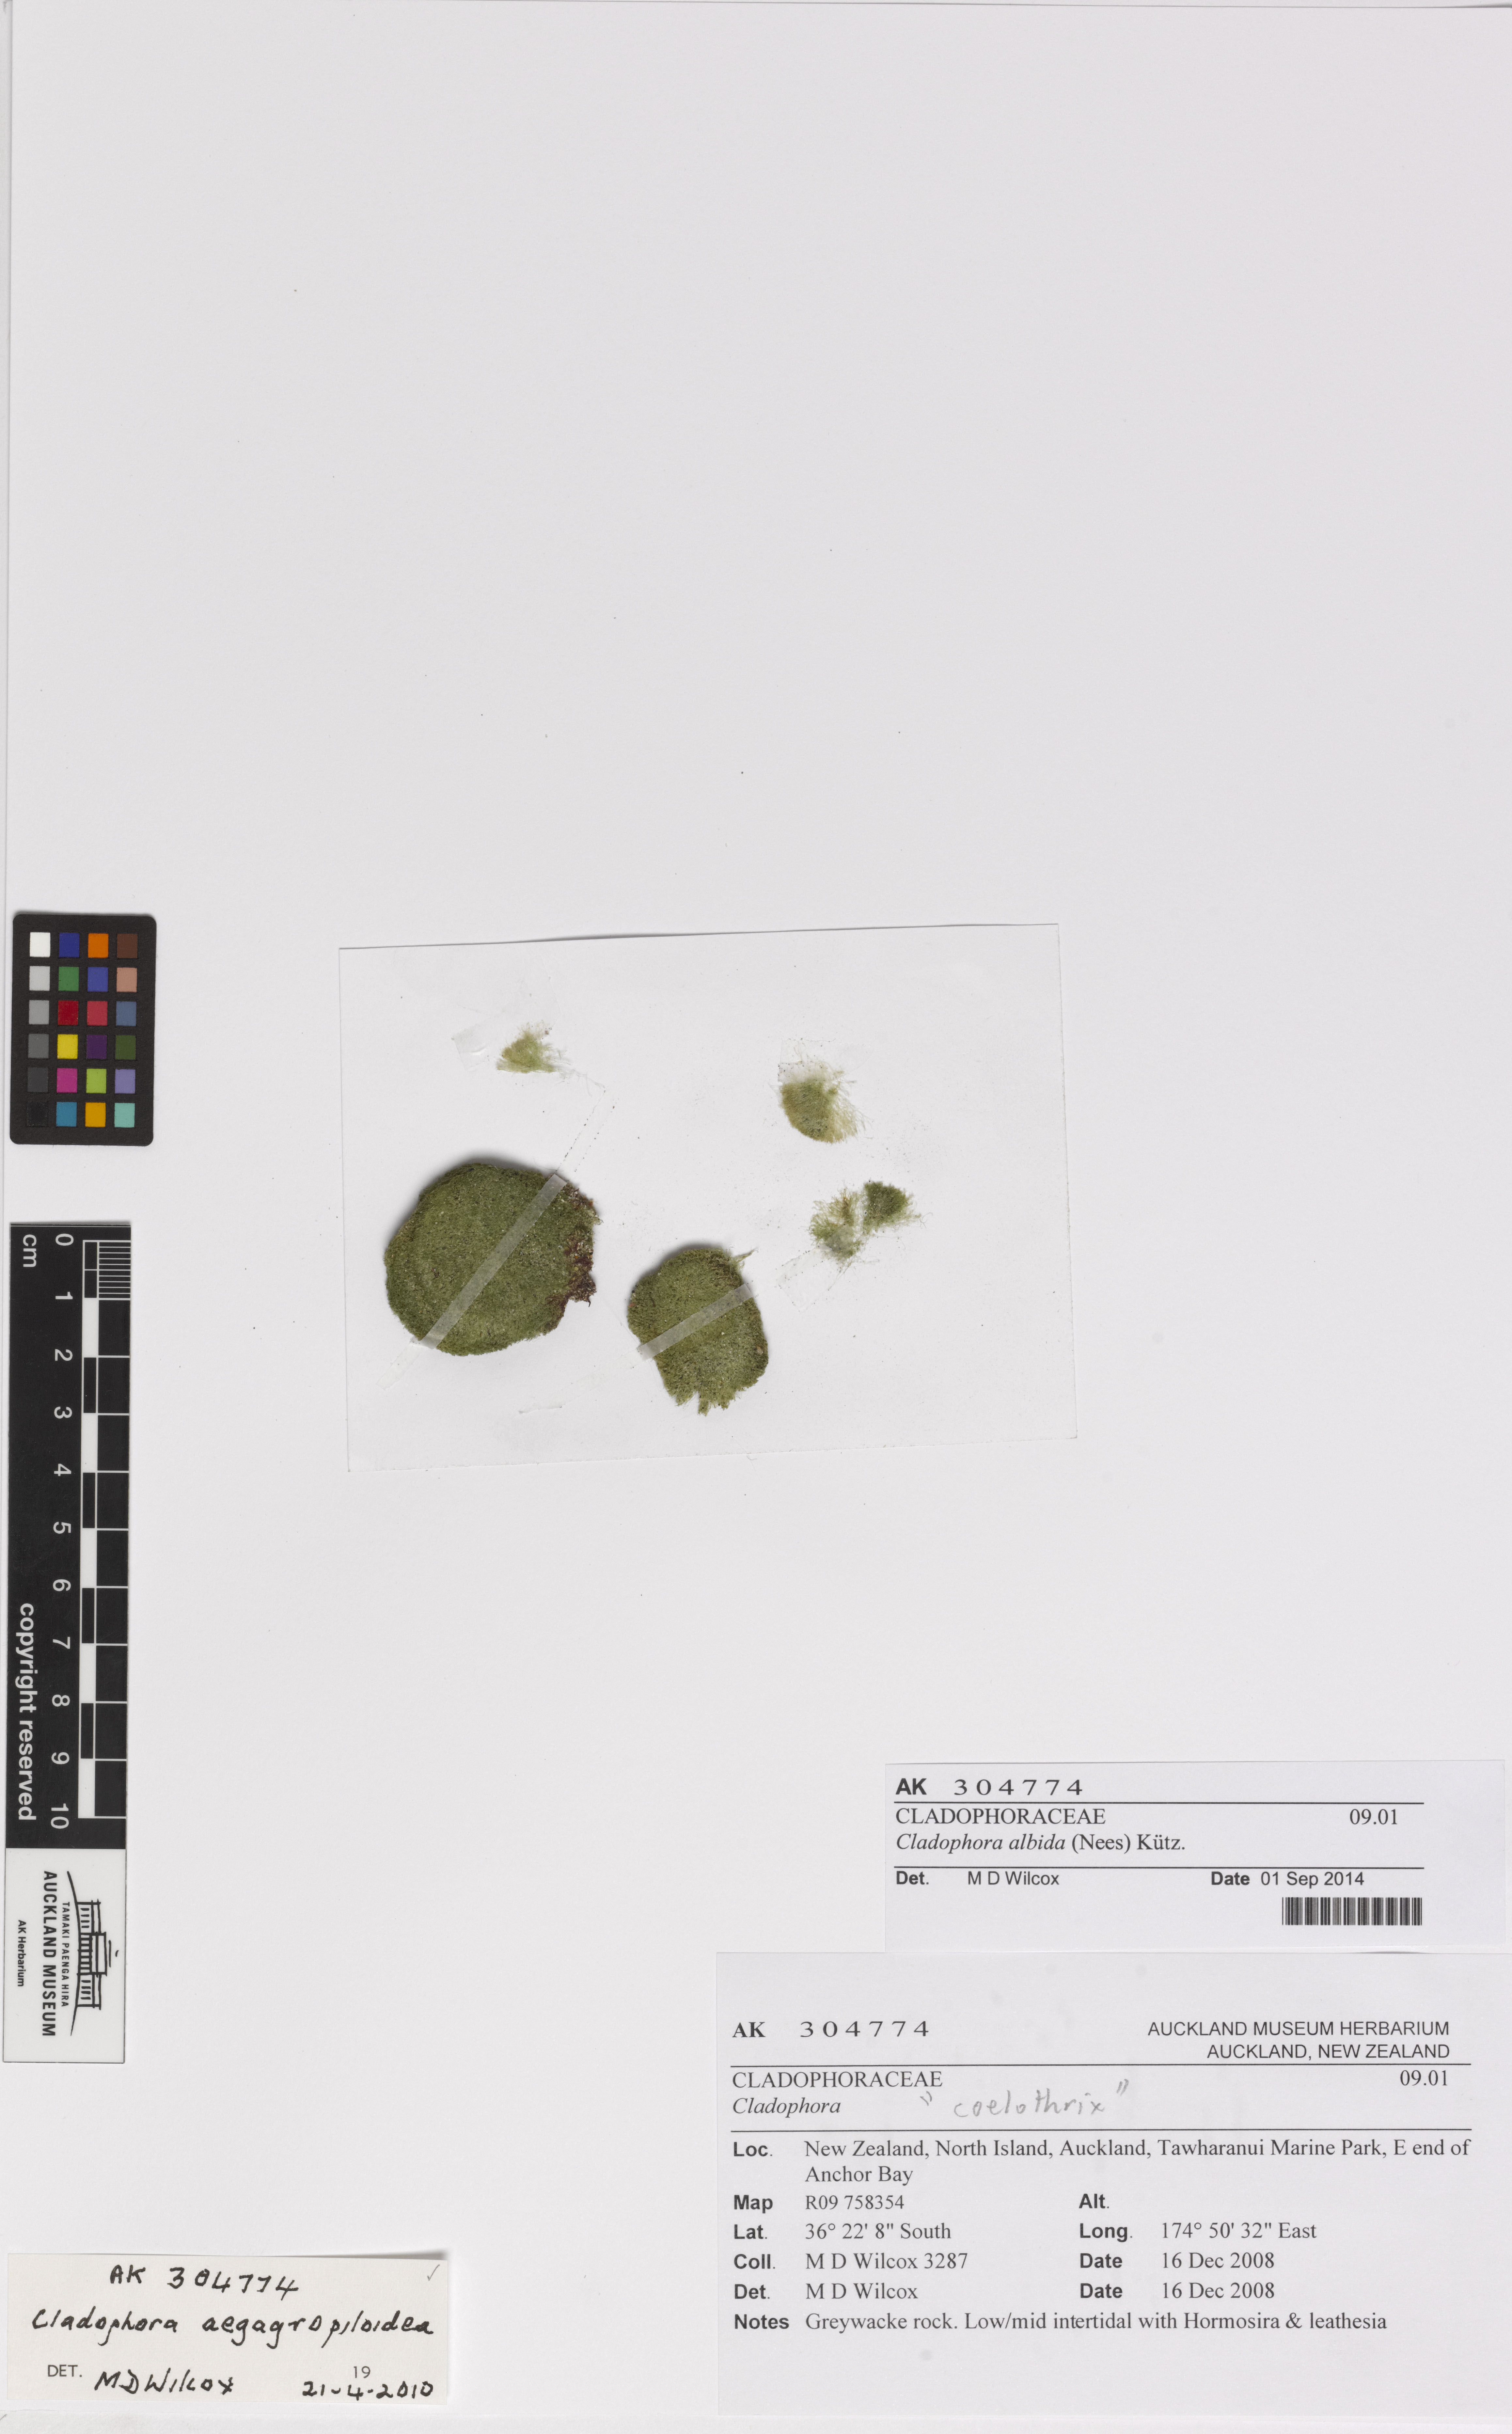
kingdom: Plantae
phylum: Chlorophyta
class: Ulvophyceae
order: Cladophorales
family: Cladophoraceae
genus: Cladophora
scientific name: Cladophora albida
